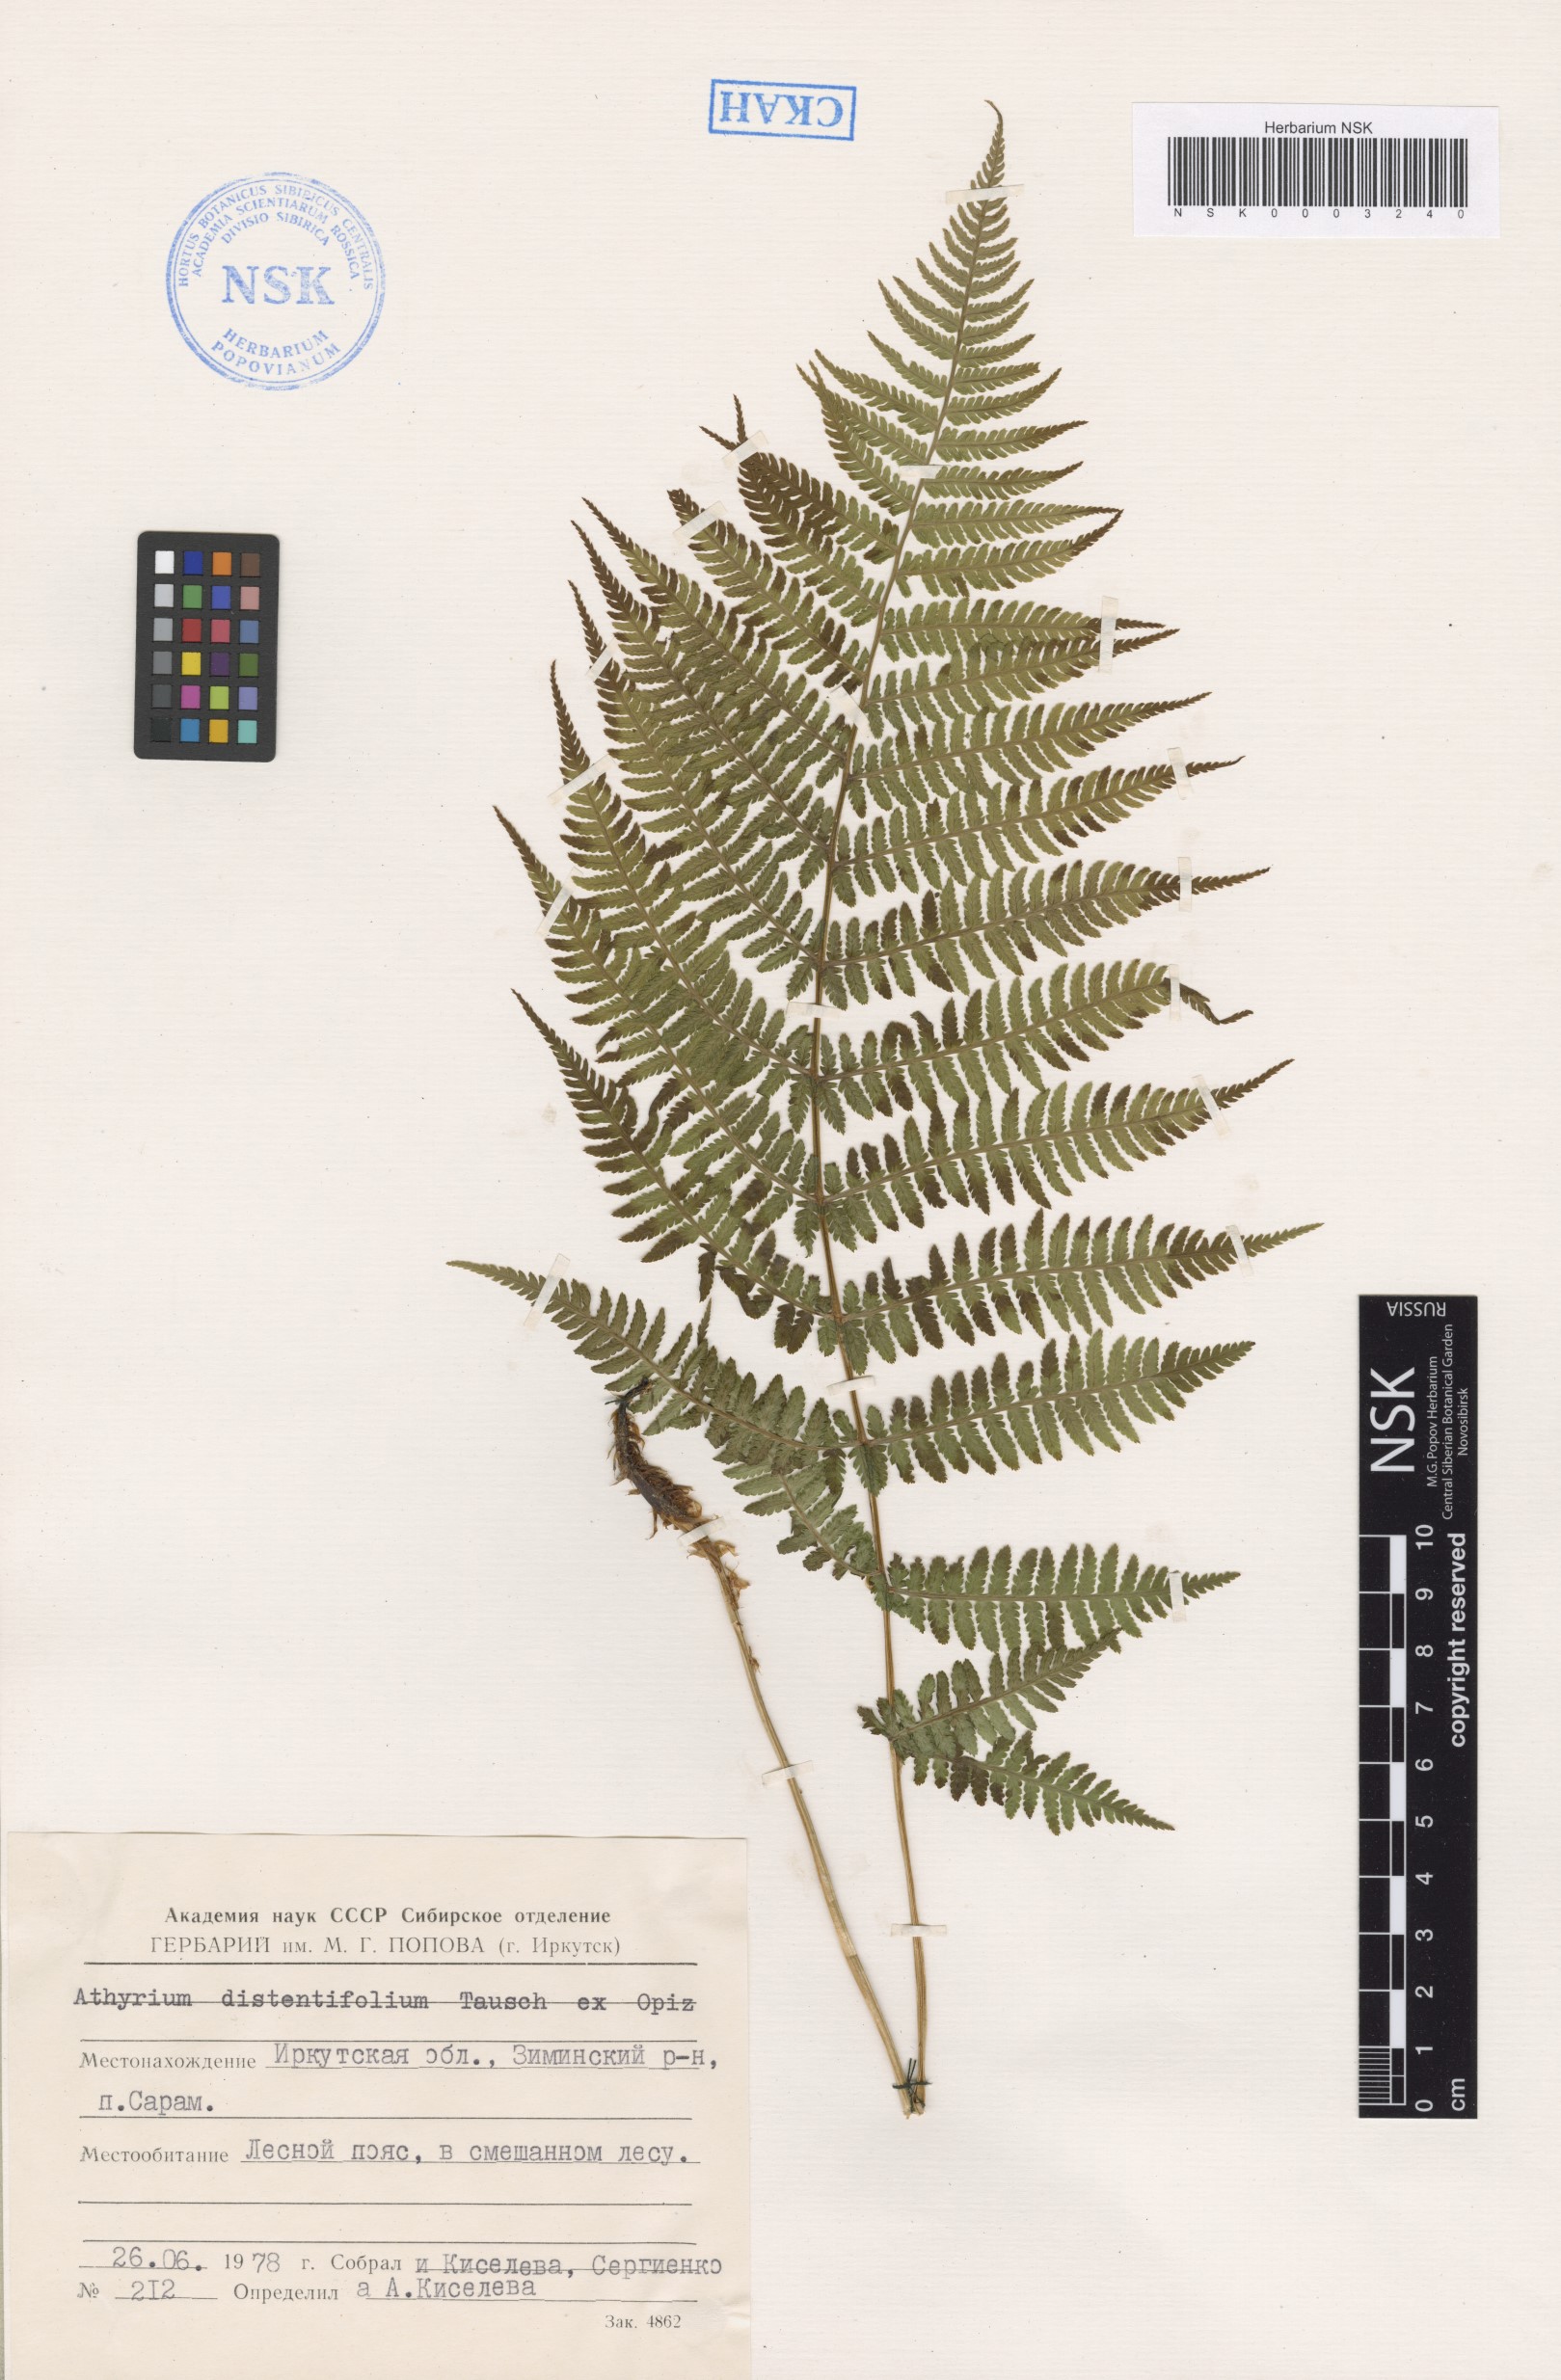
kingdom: Plantae
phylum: Tracheophyta
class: Polypodiopsida
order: Polypodiales
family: Athyriaceae
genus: Pseudathyrium
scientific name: Pseudathyrium alpestre
